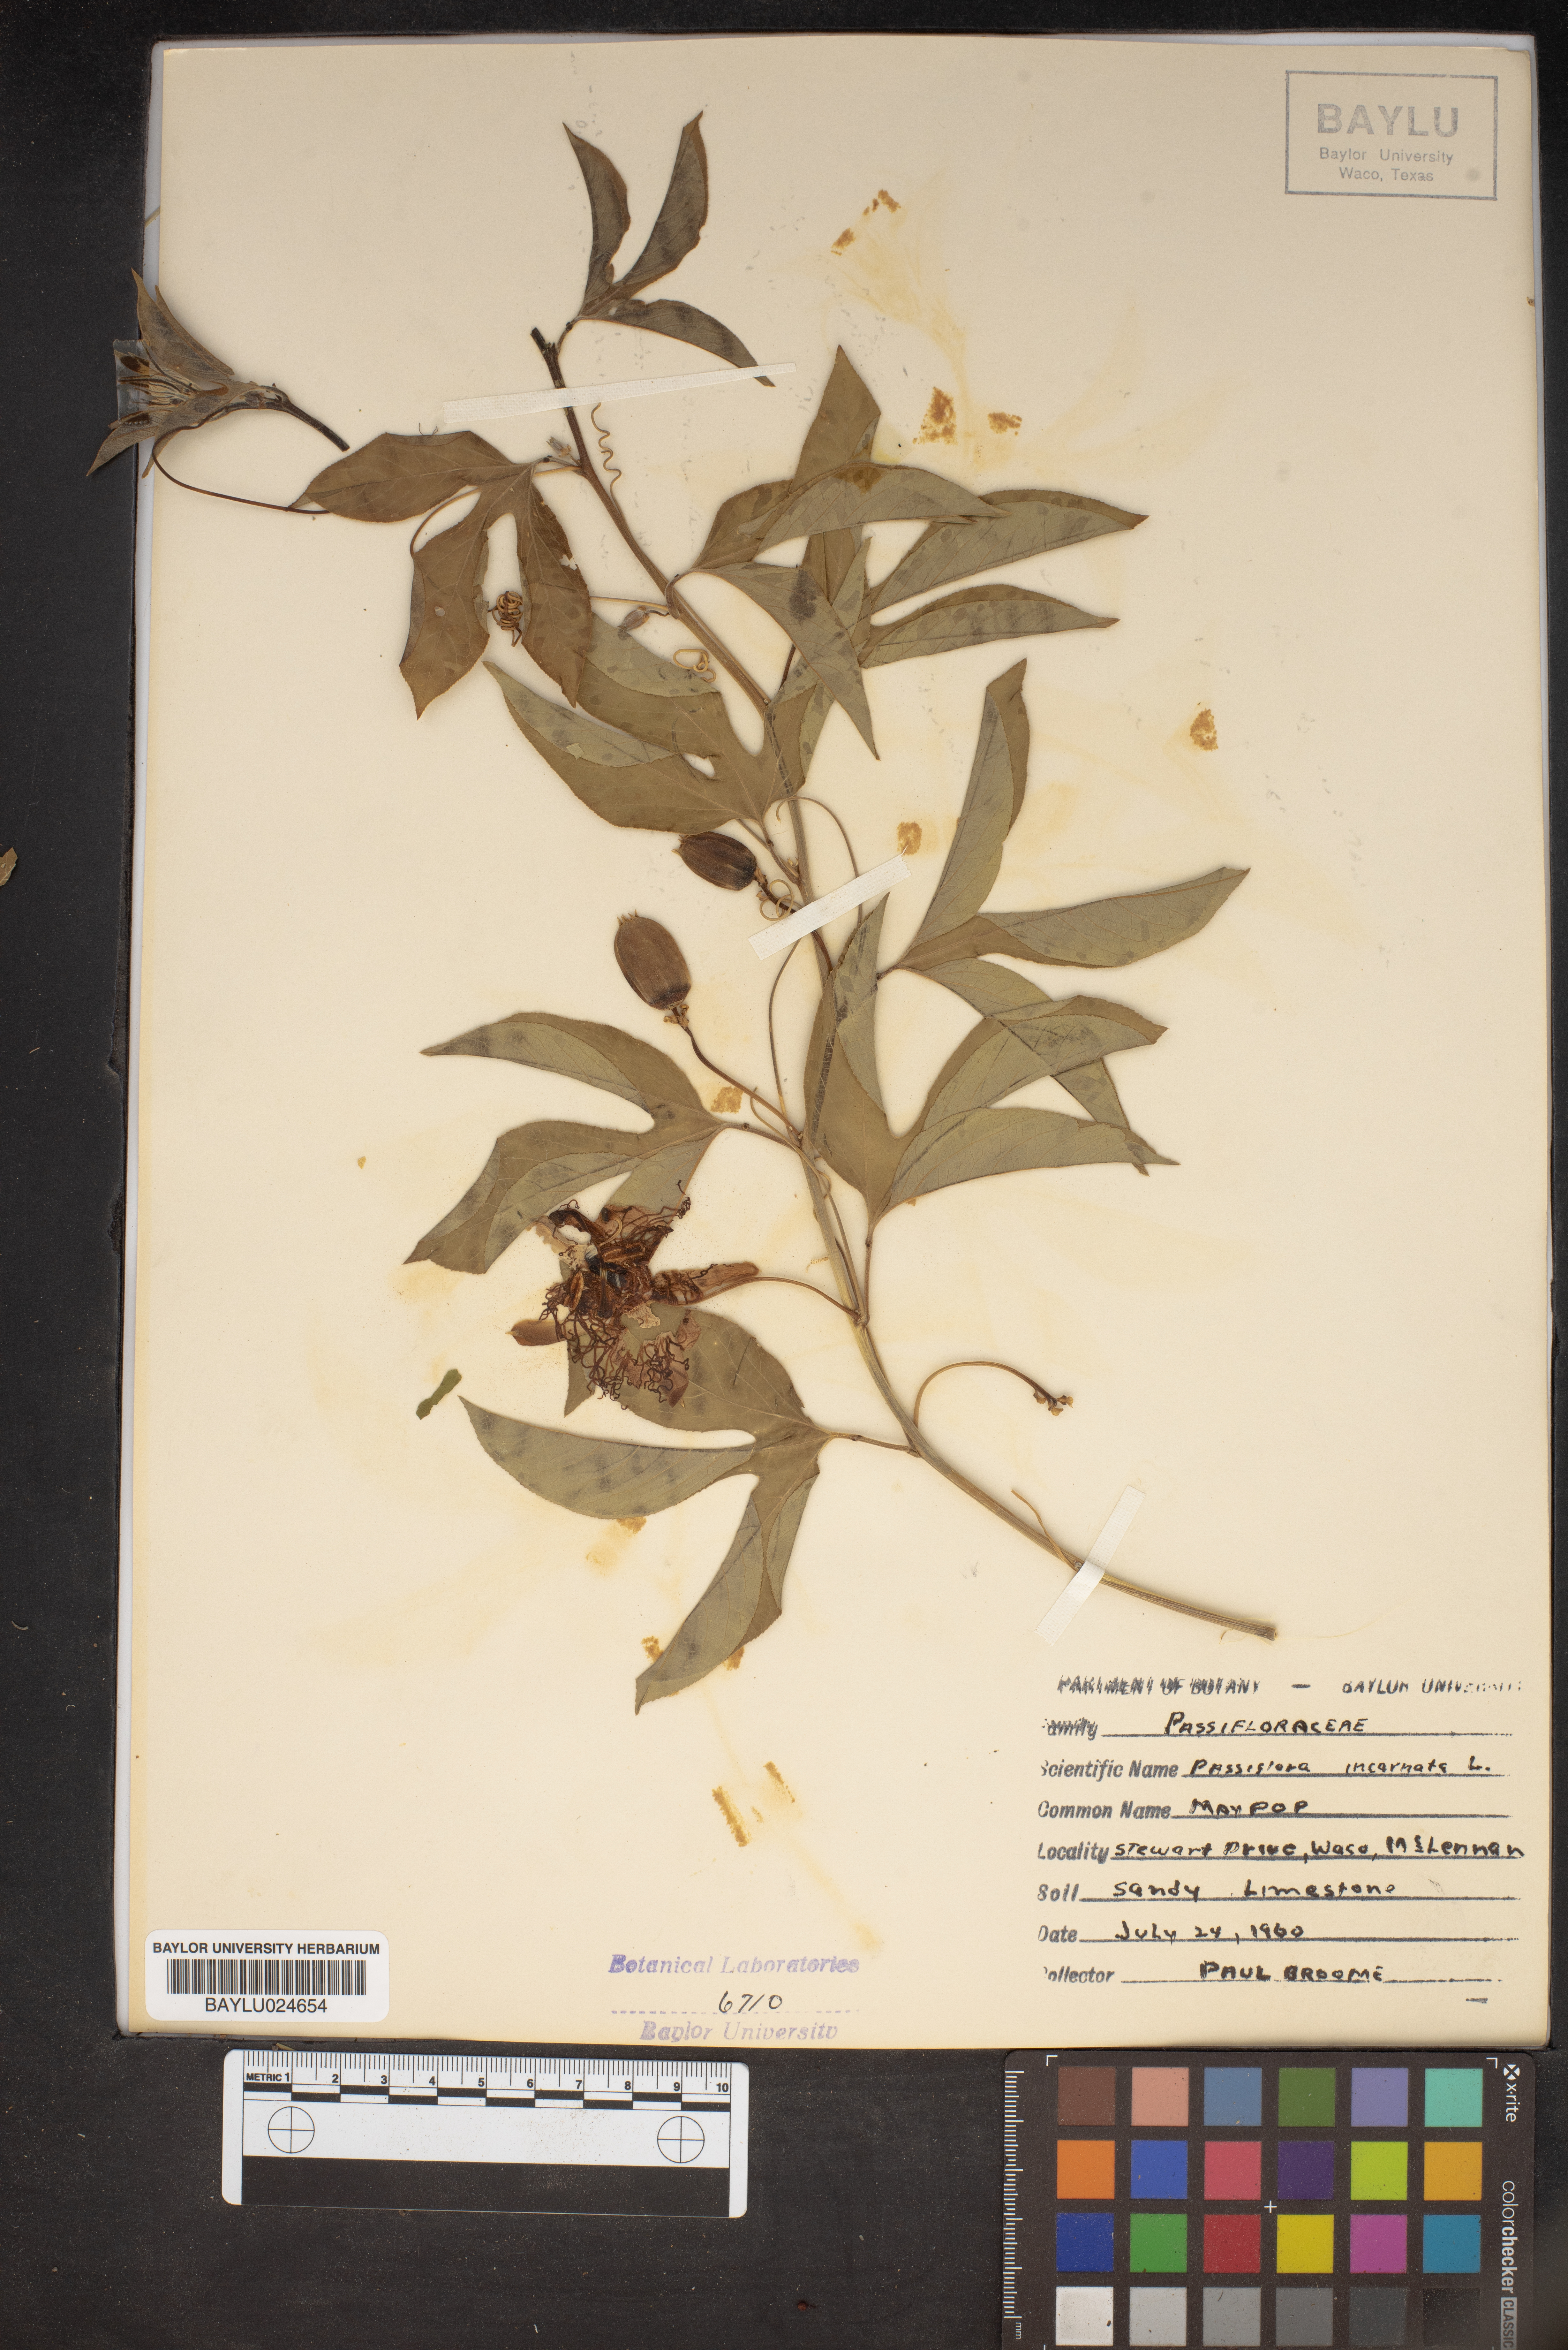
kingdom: Plantae
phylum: Tracheophyta
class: Magnoliopsida
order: Malpighiales
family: Passifloraceae
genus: Passiflora
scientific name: Passiflora incarnata
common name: Apricot-vine
